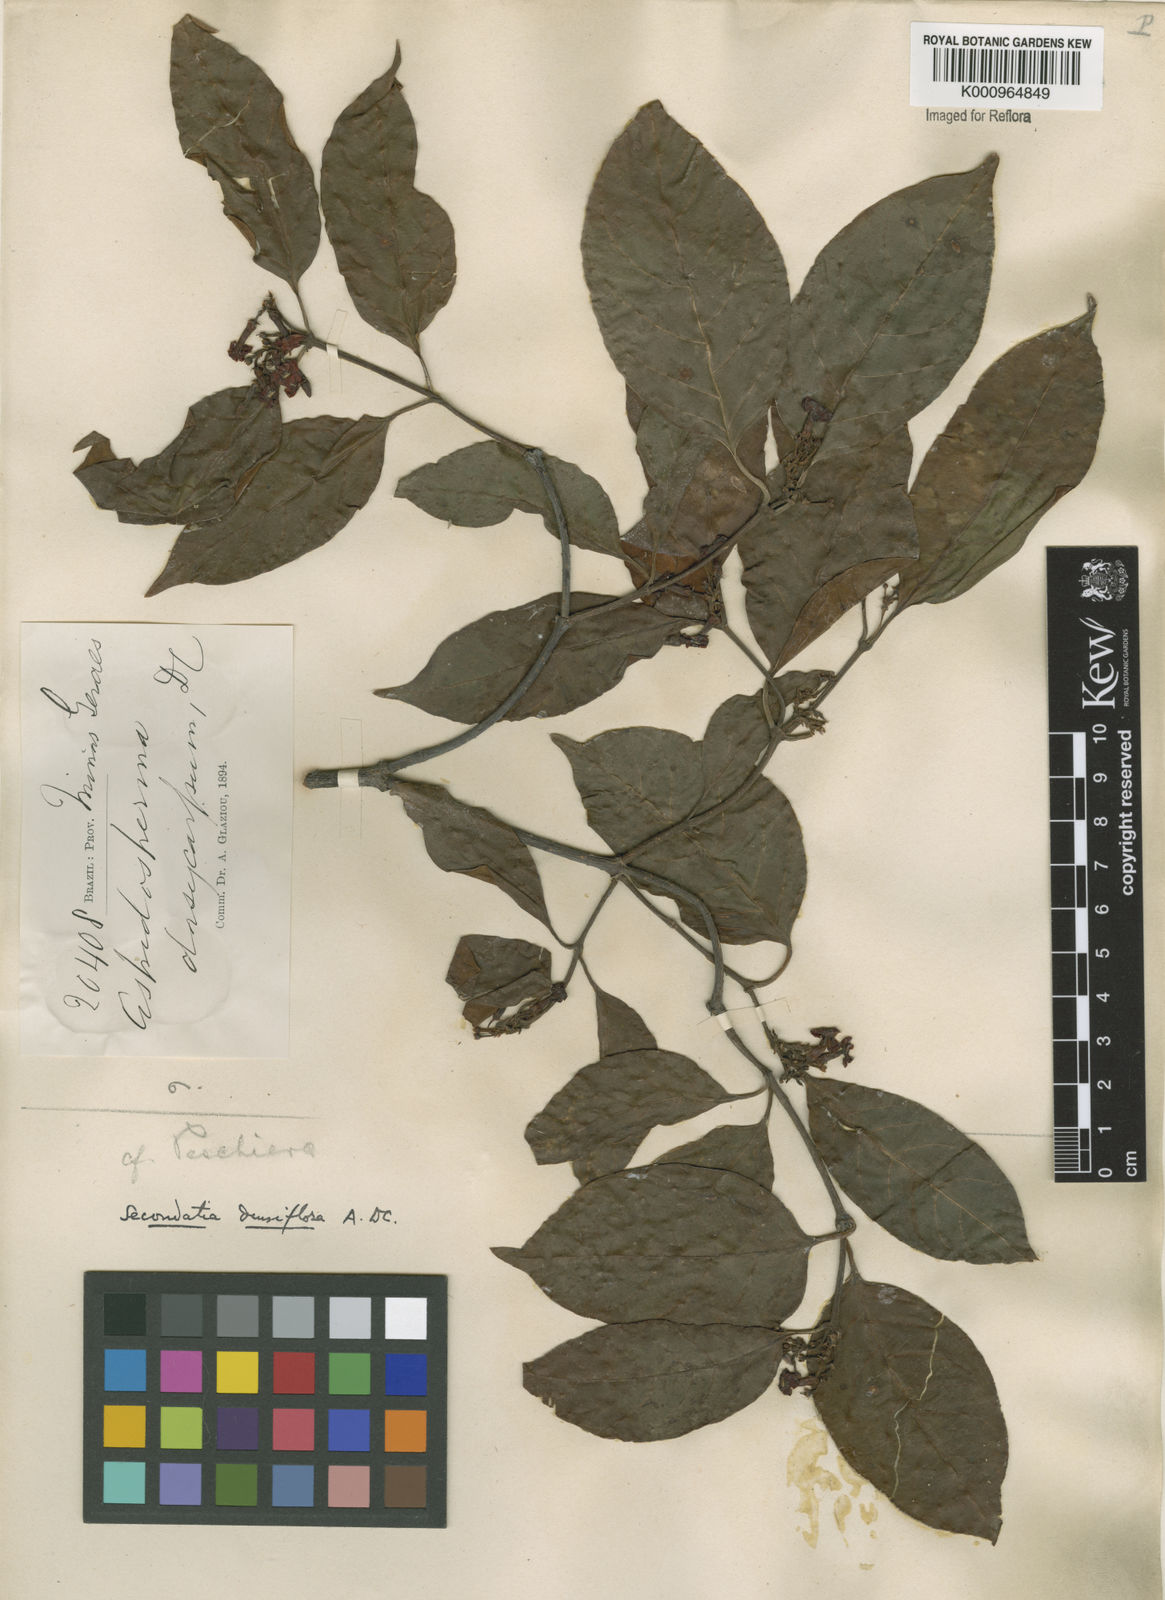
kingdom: Plantae
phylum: Tracheophyta
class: Magnoliopsida
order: Gentianales
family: Apocynaceae
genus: Secondatia
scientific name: Secondatia densiflora
